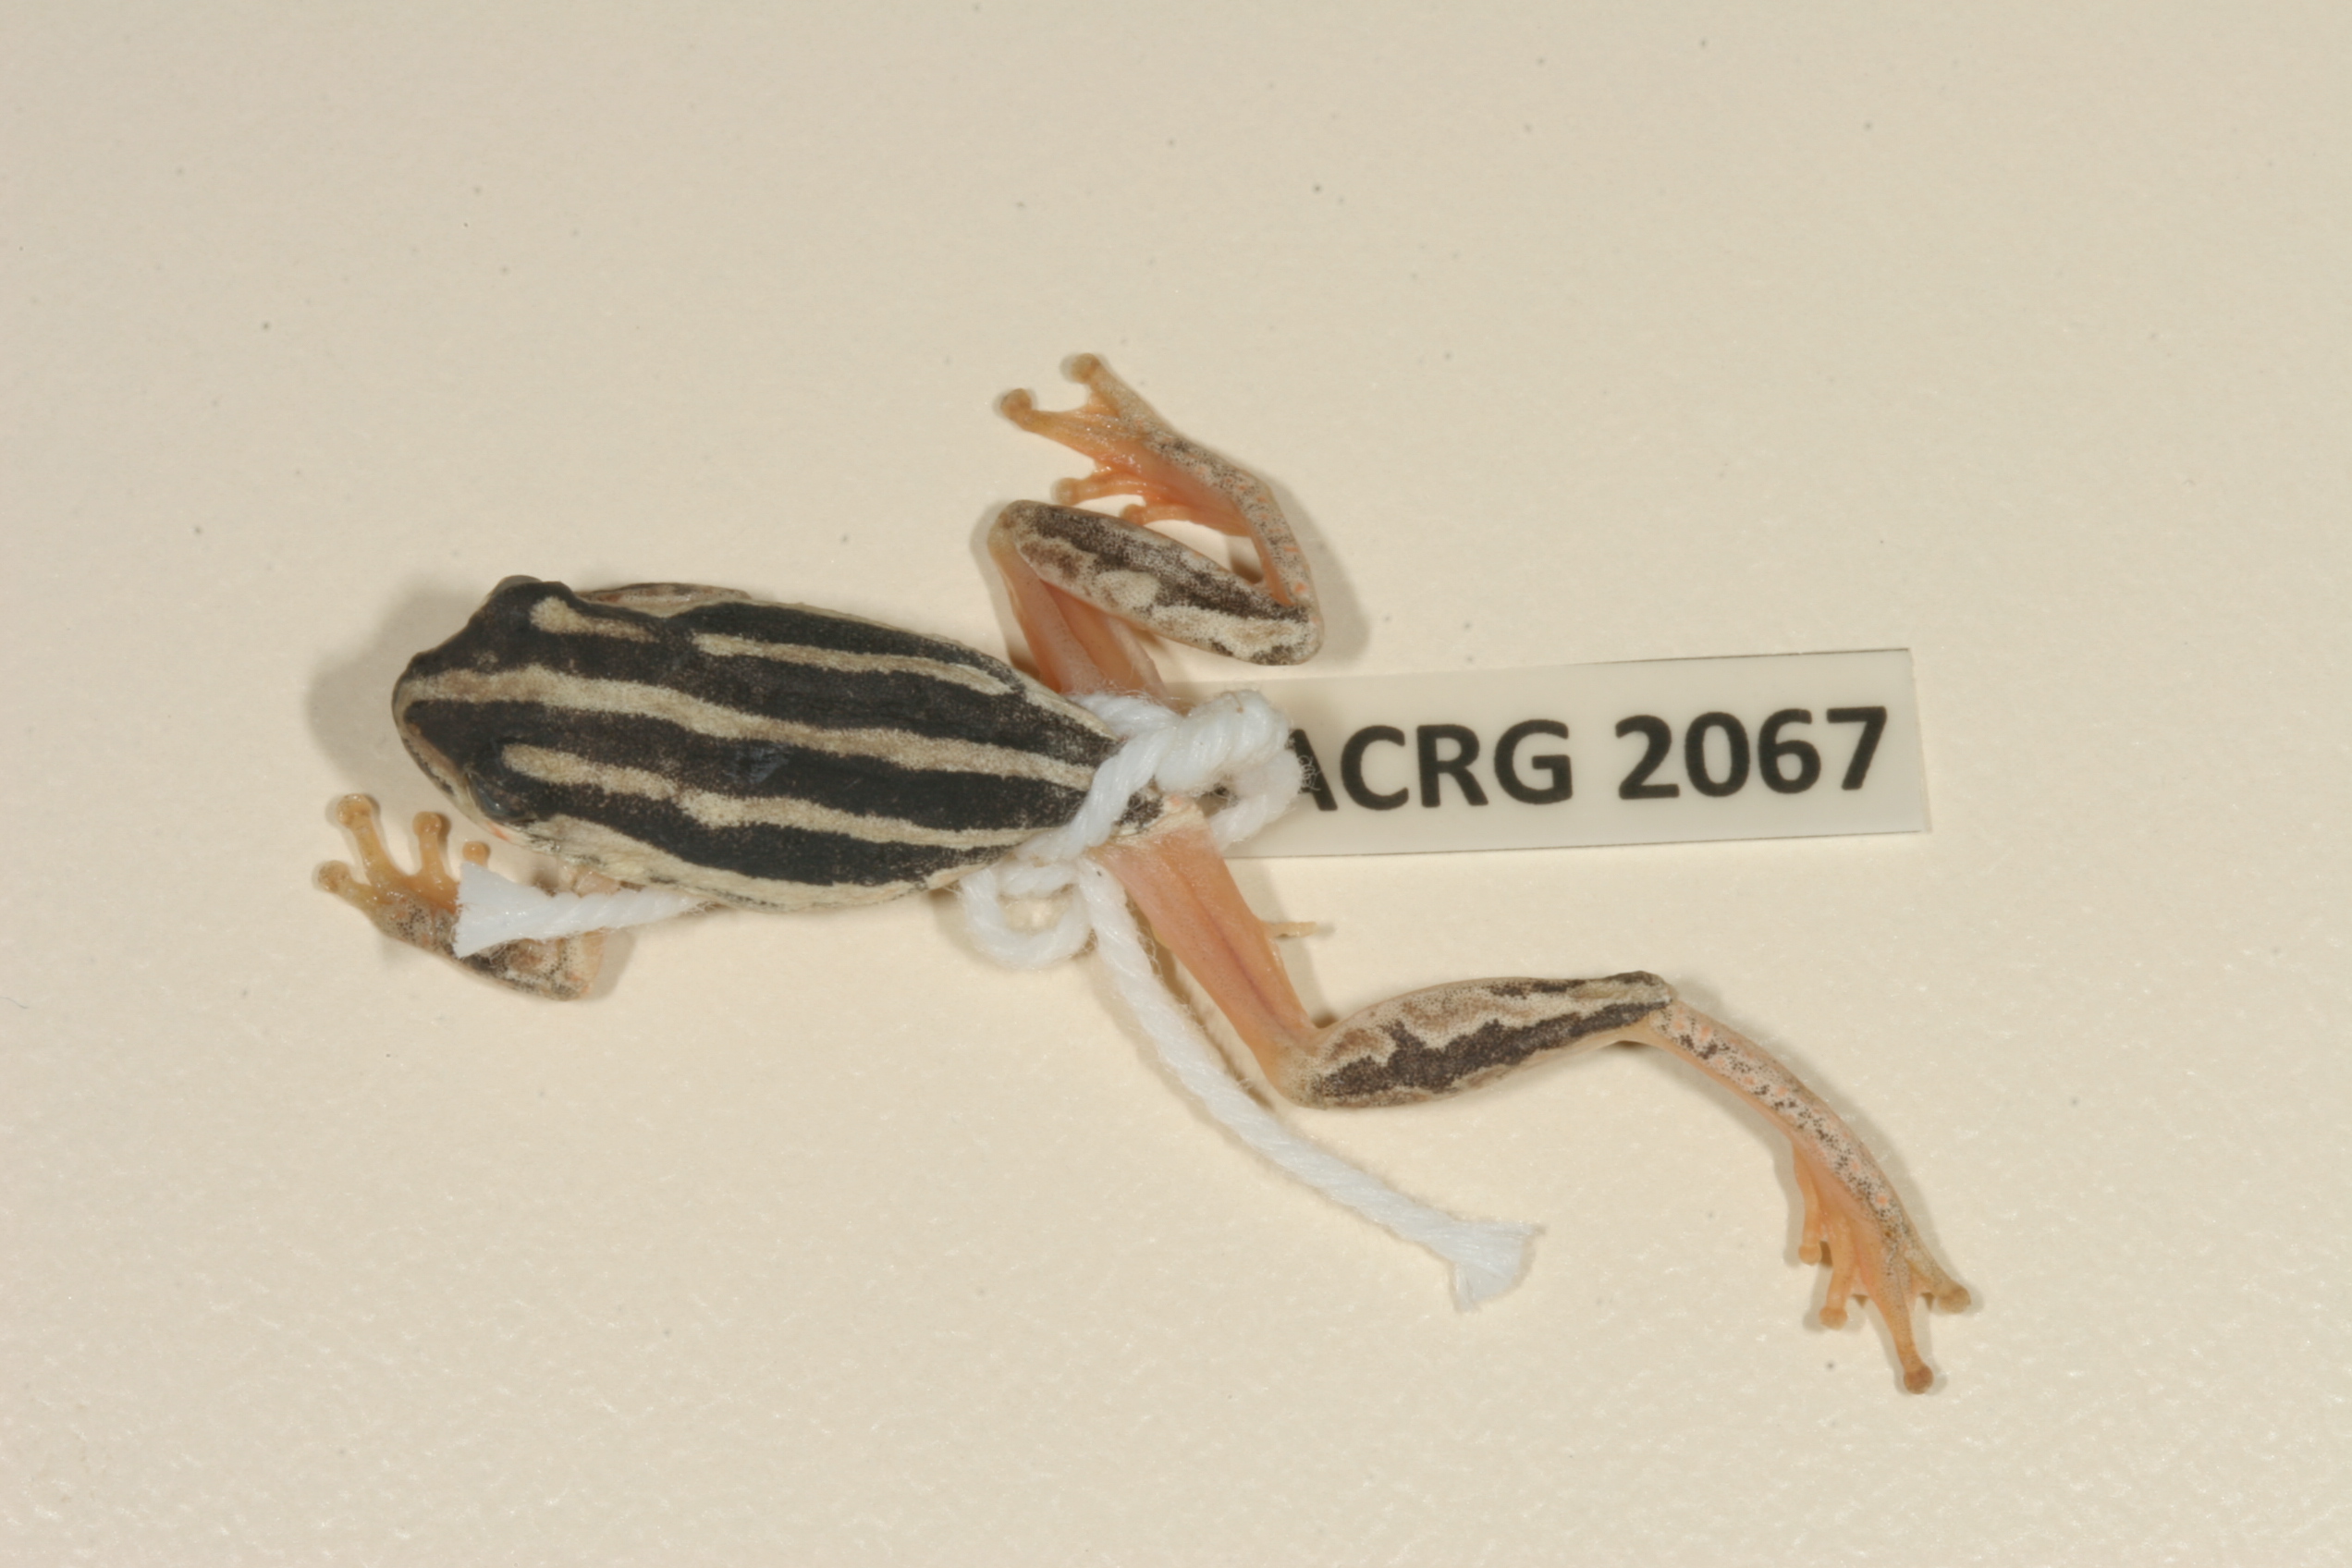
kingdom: Animalia
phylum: Chordata
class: Amphibia
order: Anura
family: Hyperoliidae
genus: Hyperolius
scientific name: Hyperolius marmoratus
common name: Painted reed frog
